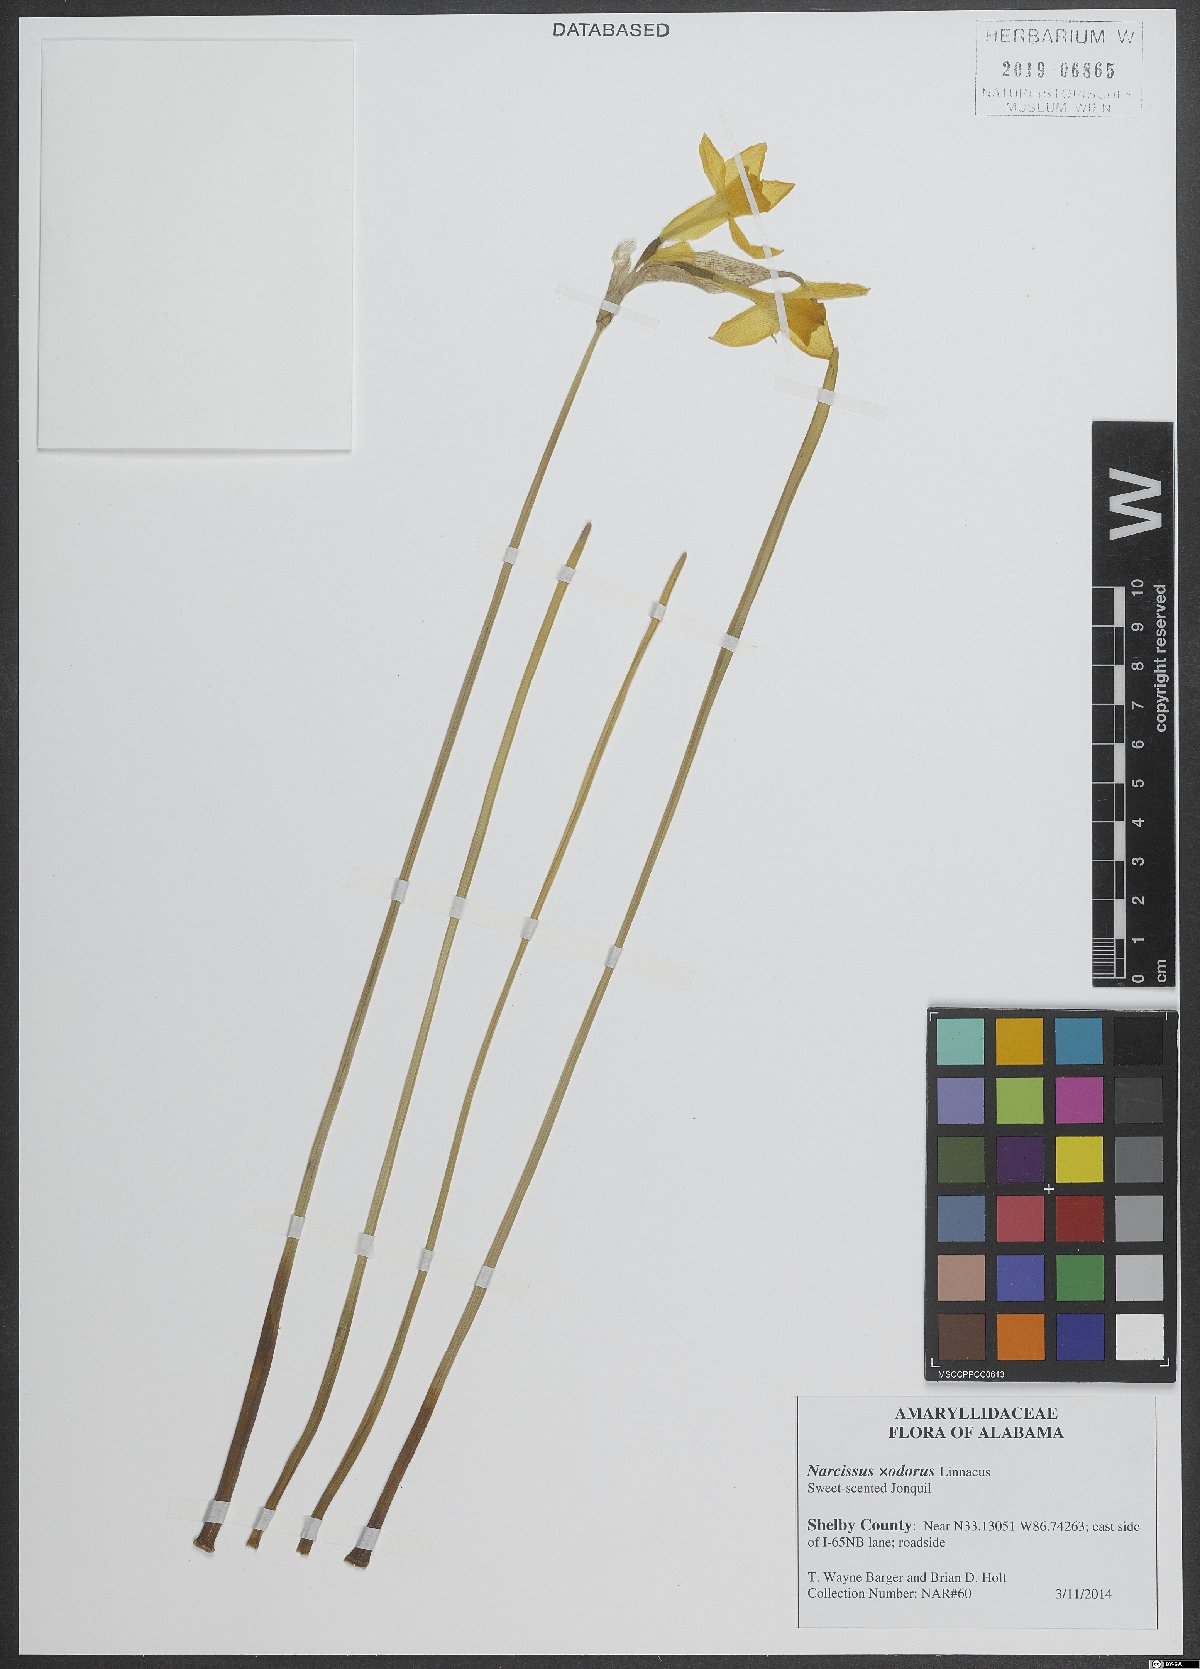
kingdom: Plantae
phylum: Tracheophyta
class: Liliopsida
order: Asparagales
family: Amaryllidaceae
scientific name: Amaryllidaceae
